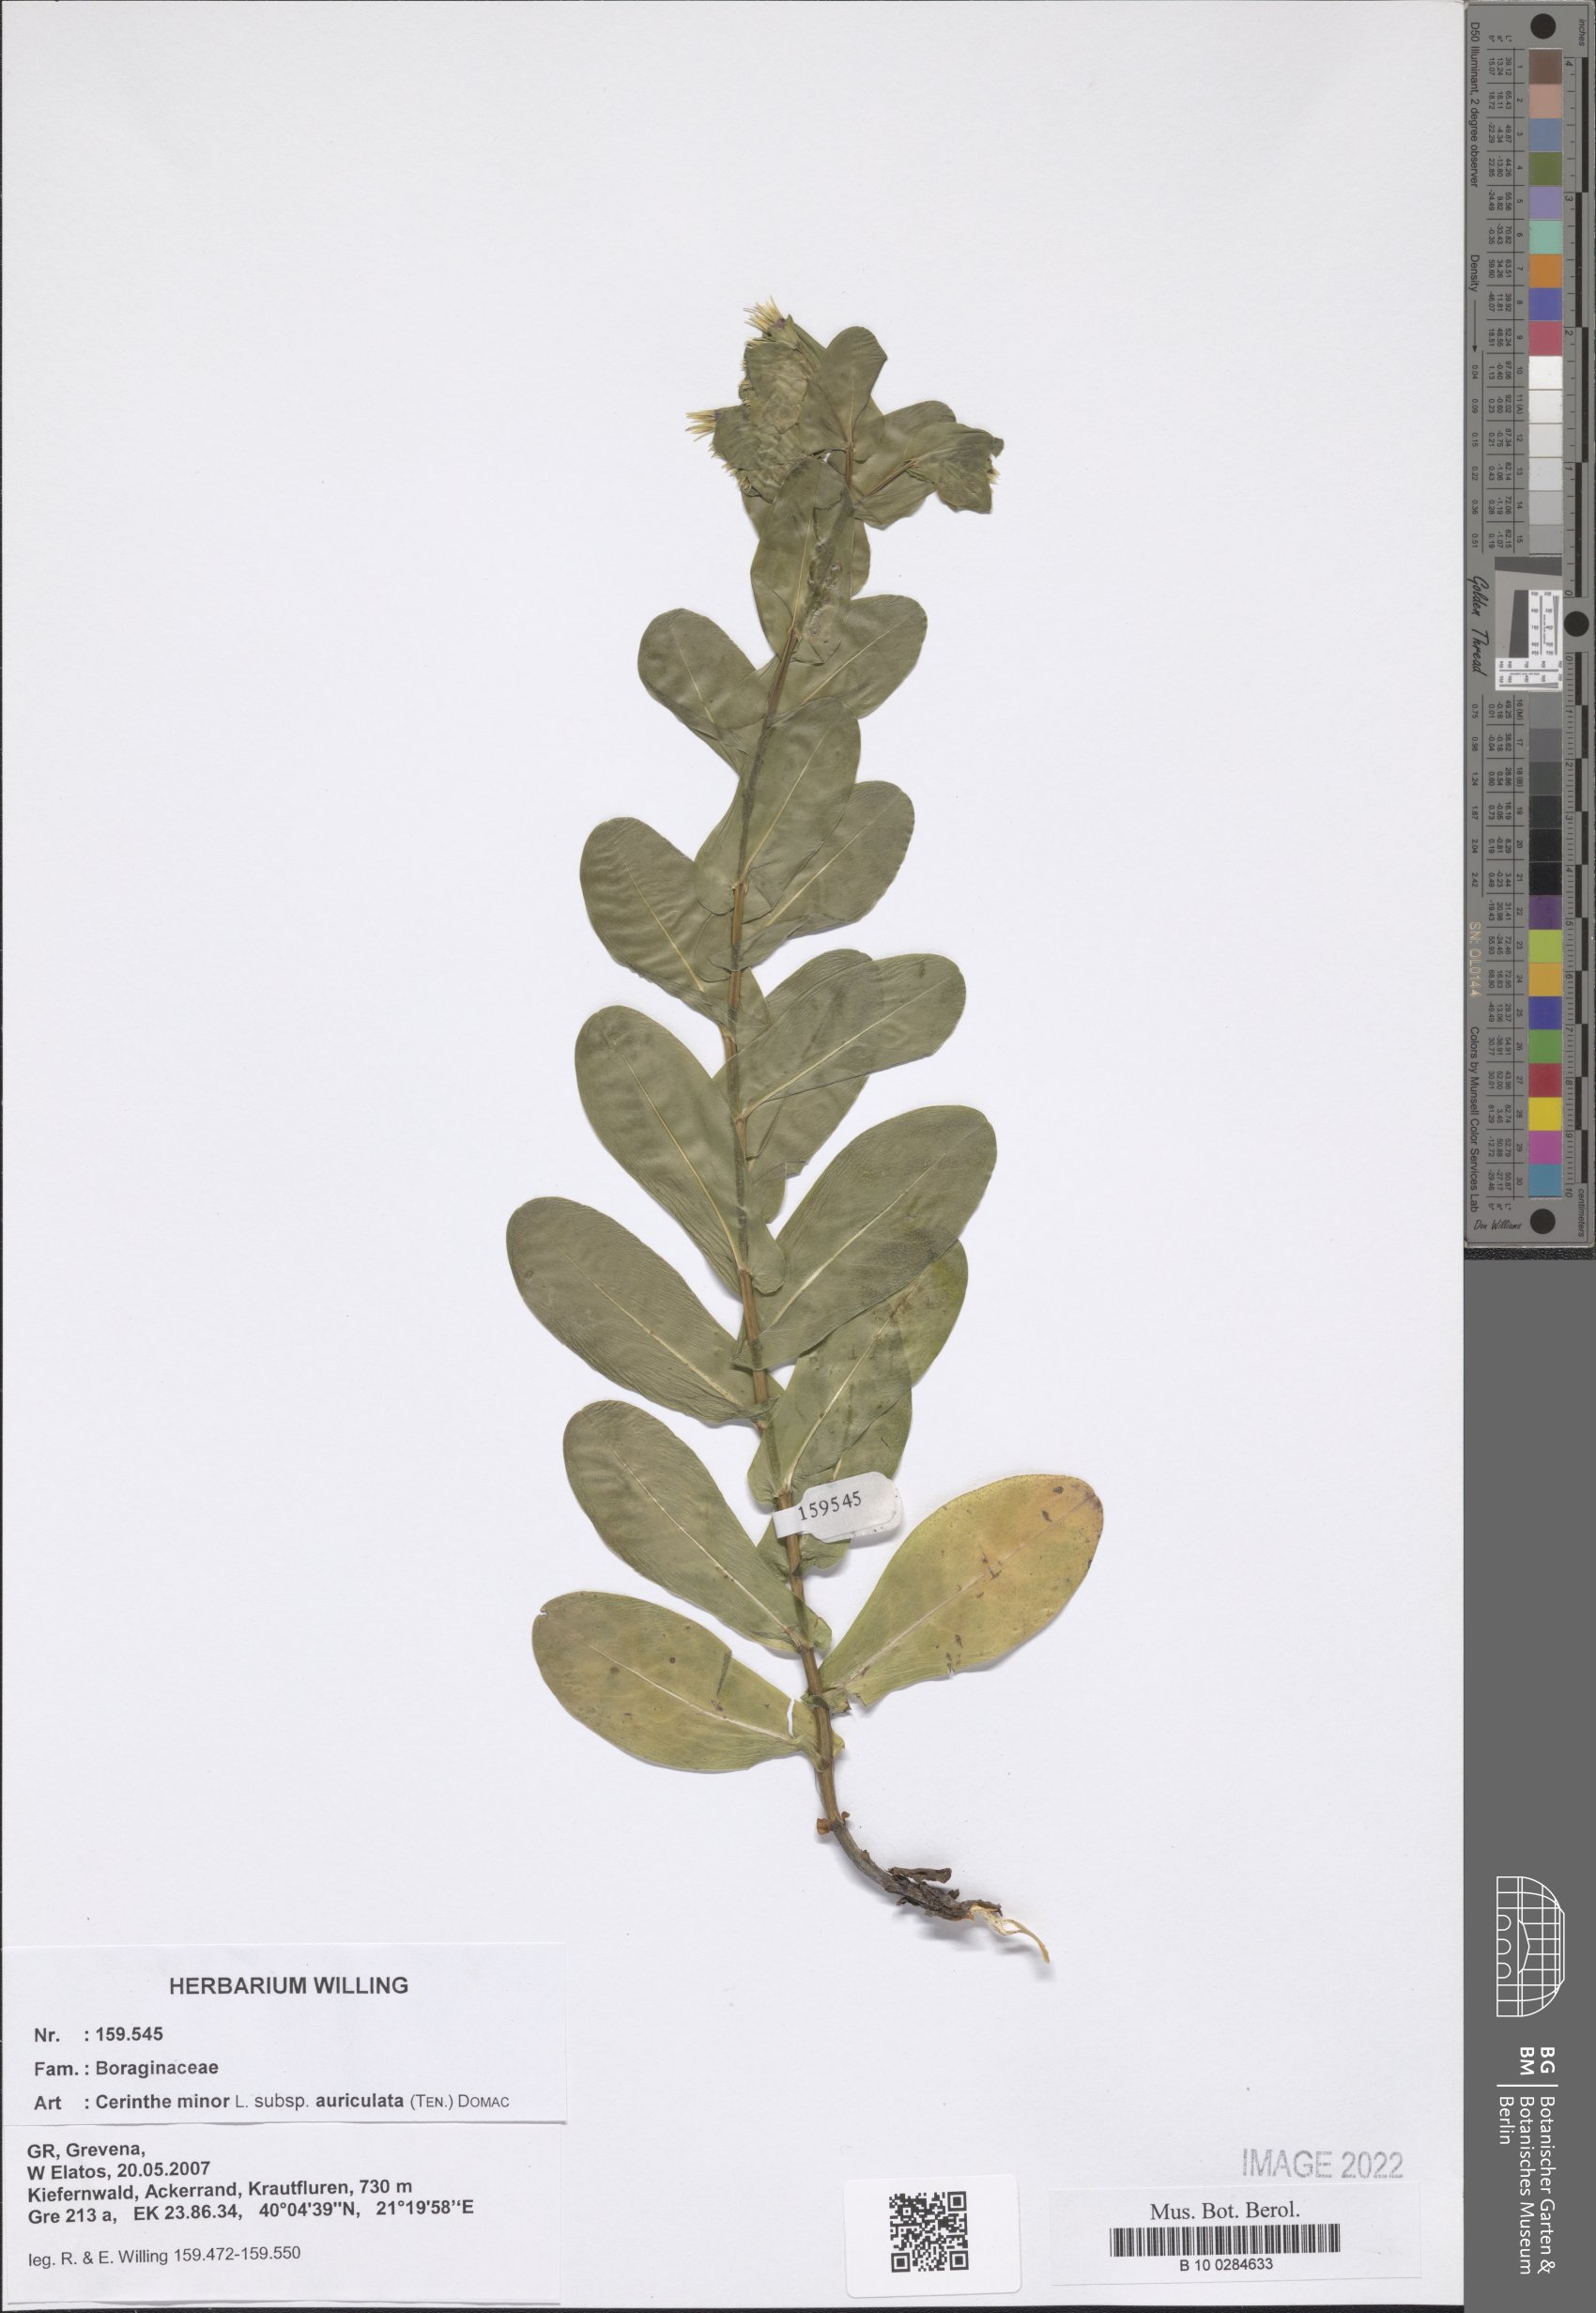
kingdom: Plantae
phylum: Tracheophyta
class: Magnoliopsida
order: Boraginales
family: Boraginaceae
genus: Cerinthe
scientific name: Cerinthe minor
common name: Lesser honeywort
